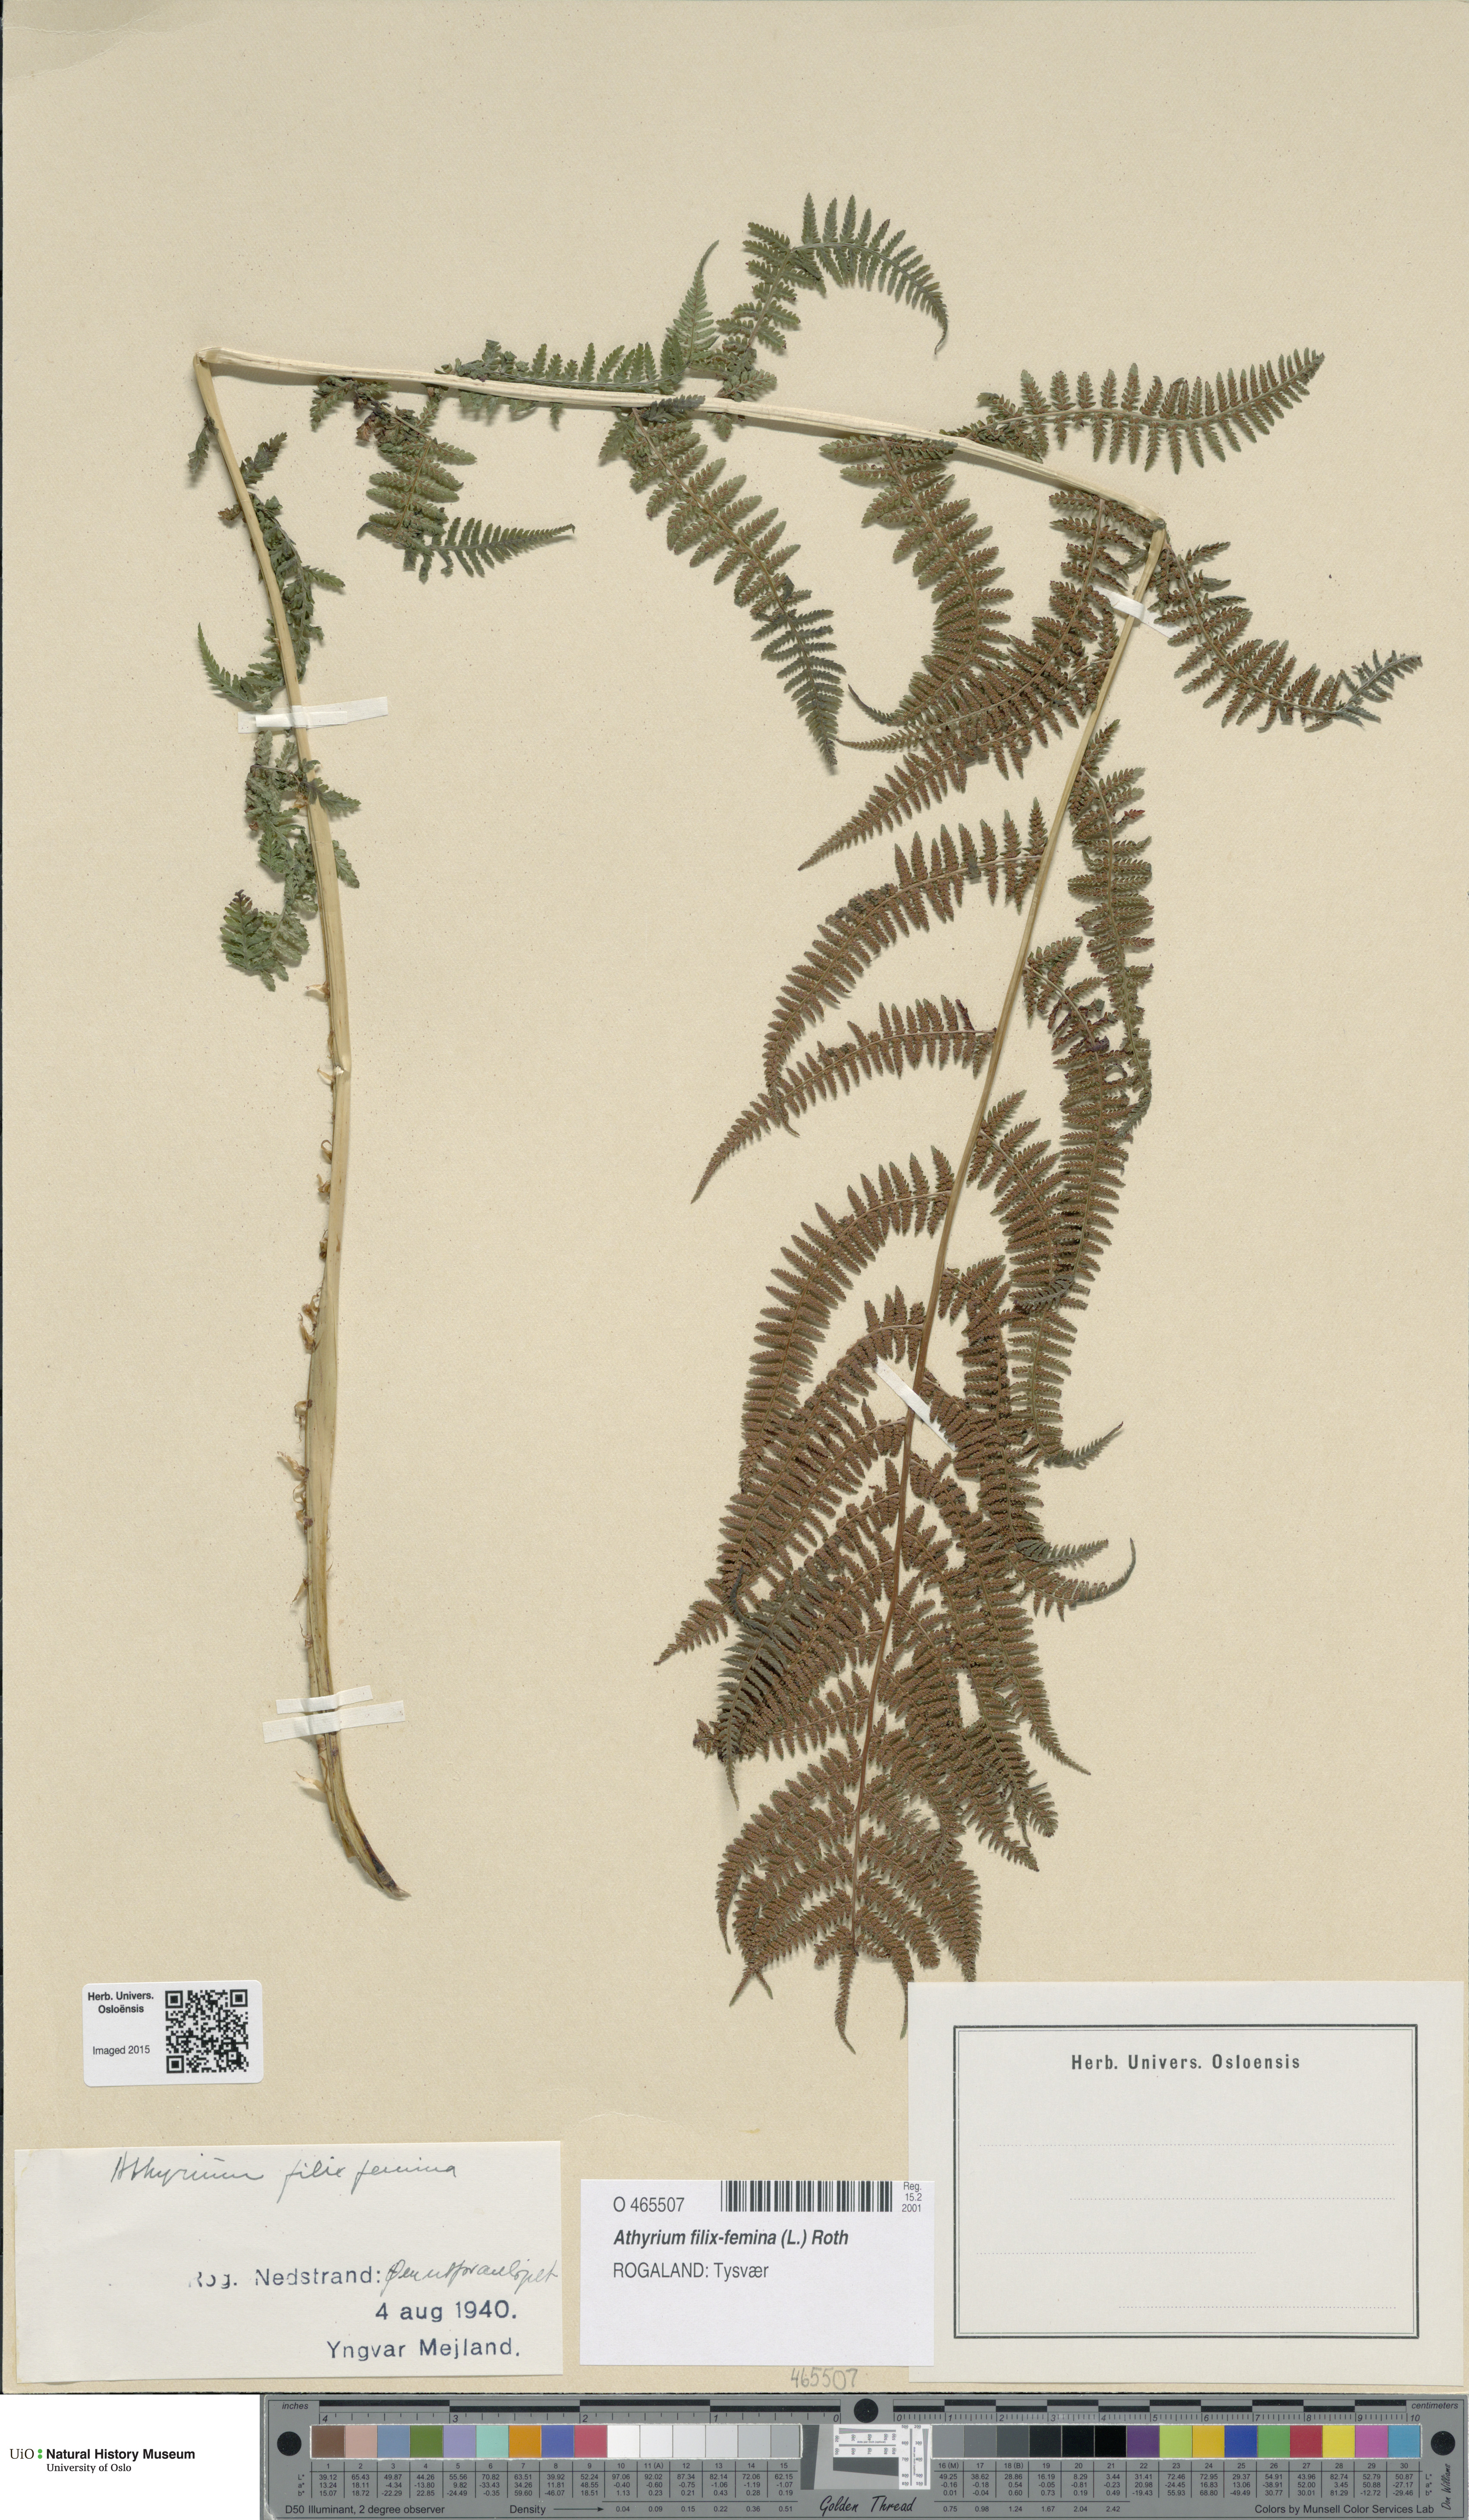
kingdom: Plantae
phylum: Tracheophyta
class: Polypodiopsida
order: Polypodiales
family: Athyriaceae
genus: Athyrium
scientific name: Athyrium filix-femina
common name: Lady fern
